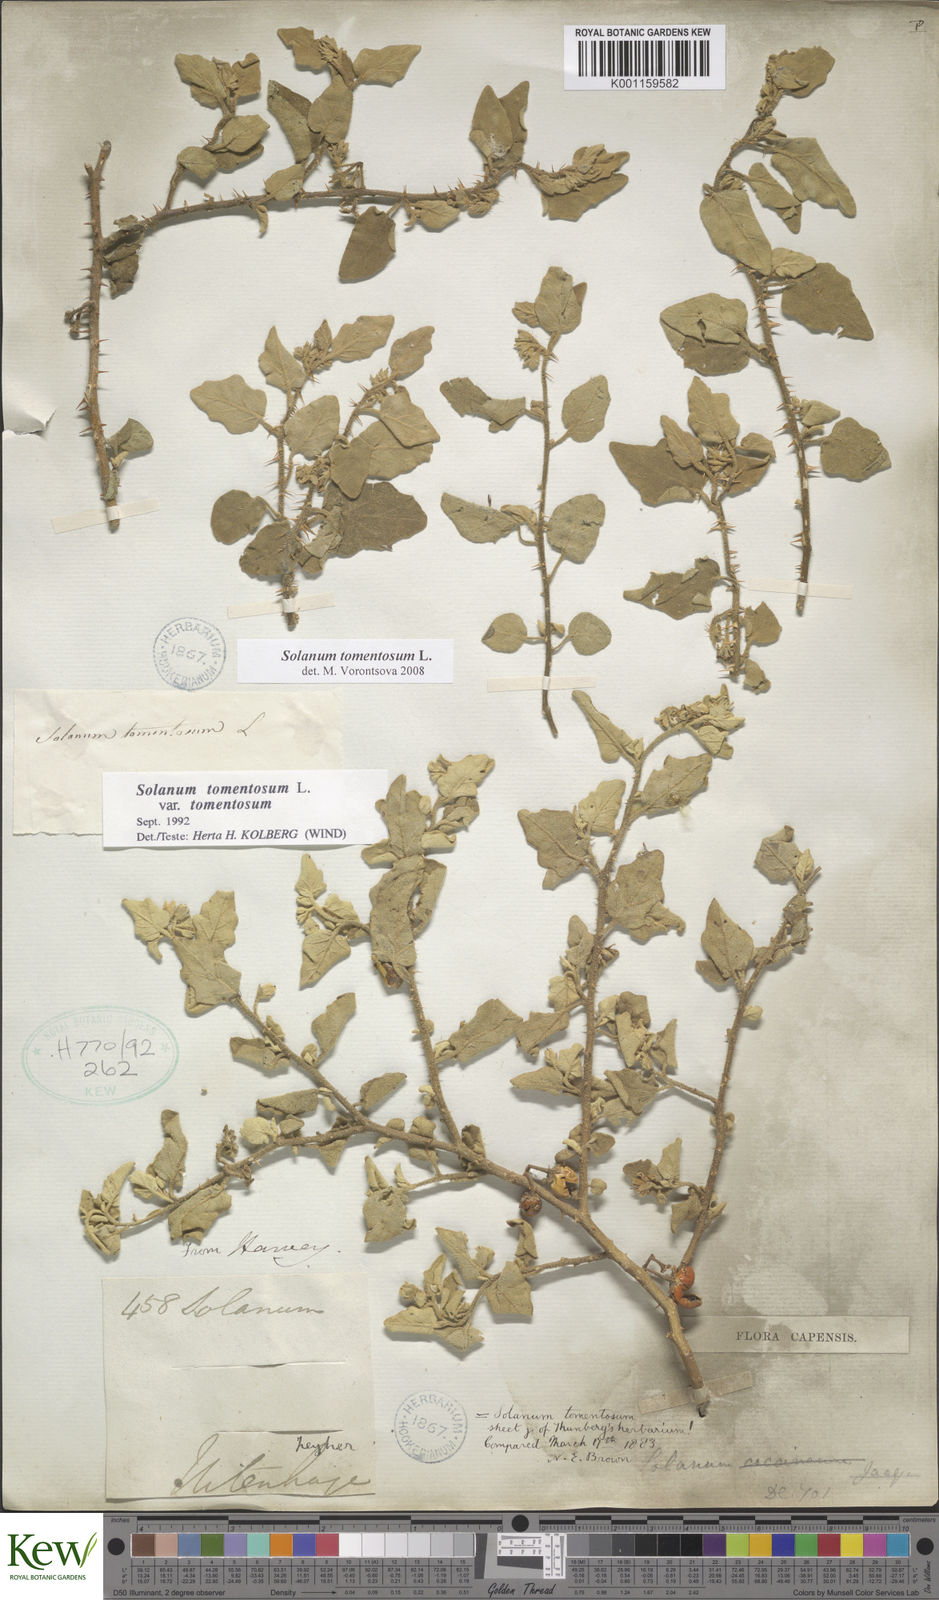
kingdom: Plantae
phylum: Tracheophyta
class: Magnoliopsida
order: Solanales
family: Solanaceae
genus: Solanum
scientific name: Solanum tomentosum
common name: Wild aubergine
